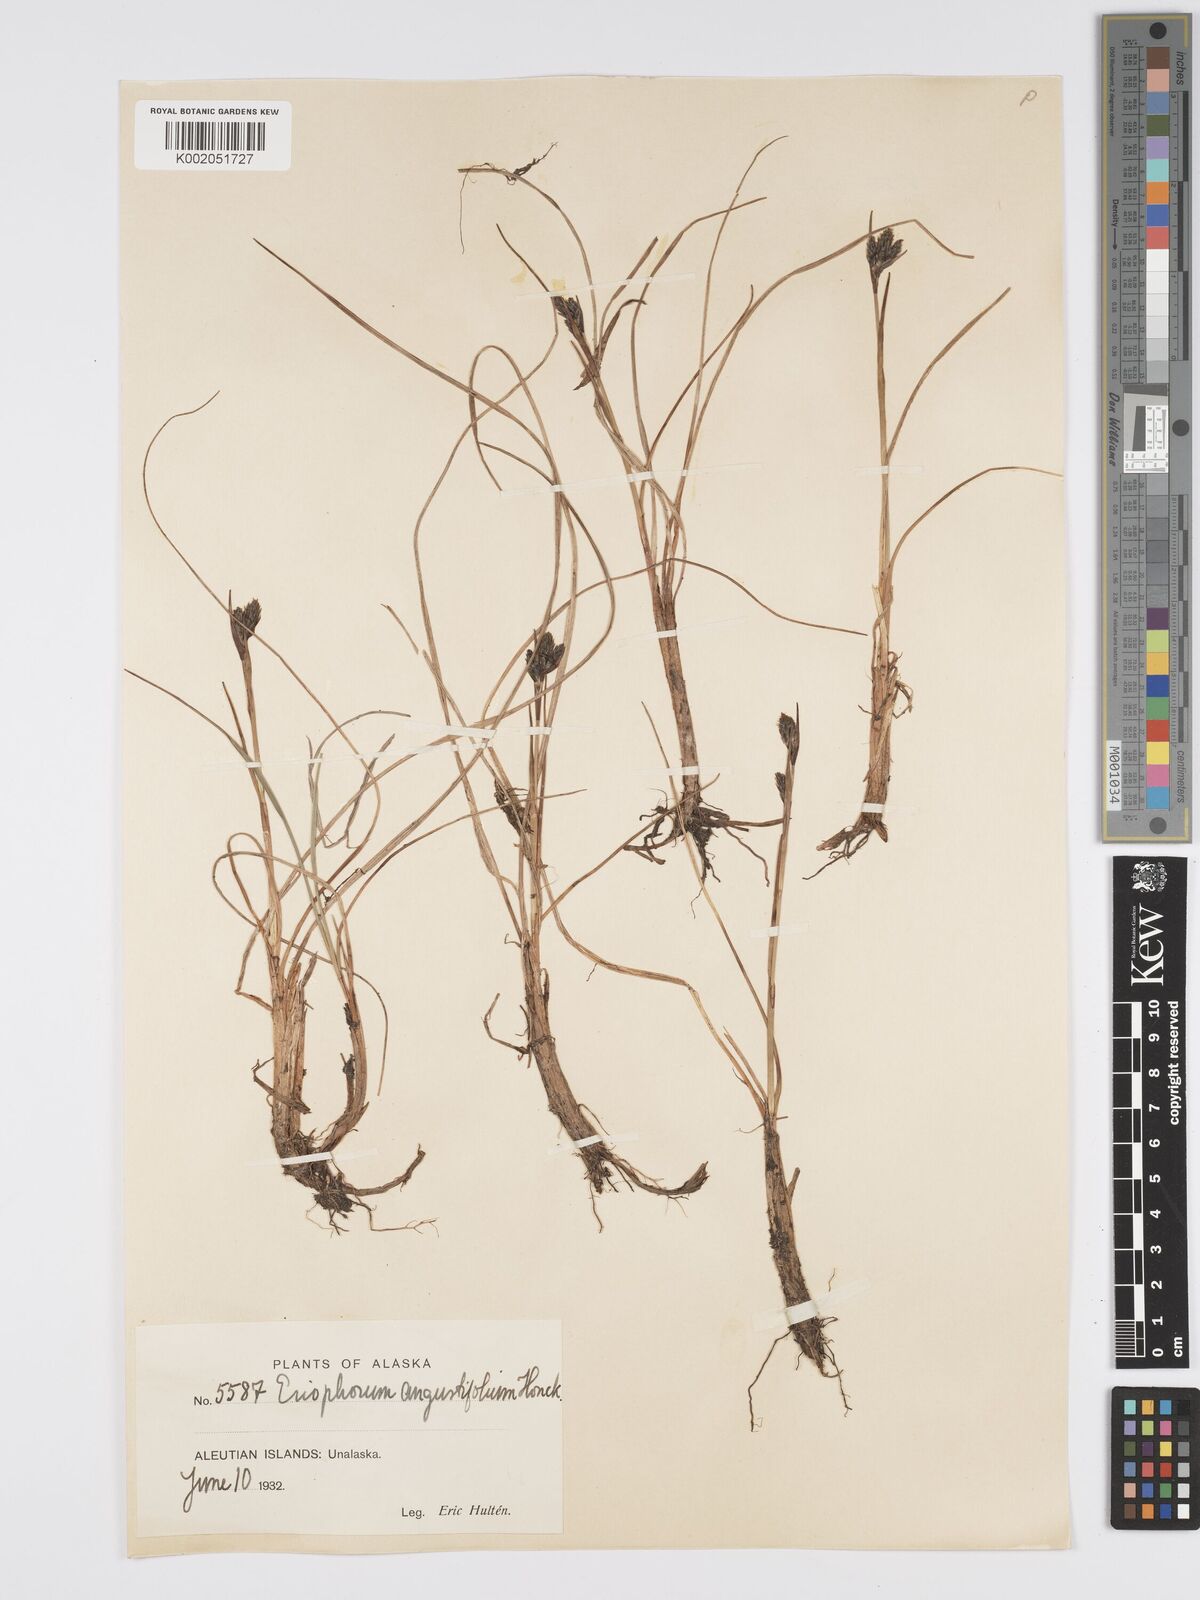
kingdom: Plantae
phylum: Tracheophyta
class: Liliopsida
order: Poales
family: Cyperaceae
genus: Eriophorum
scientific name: Eriophorum angustifolium
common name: Common cottongrass
